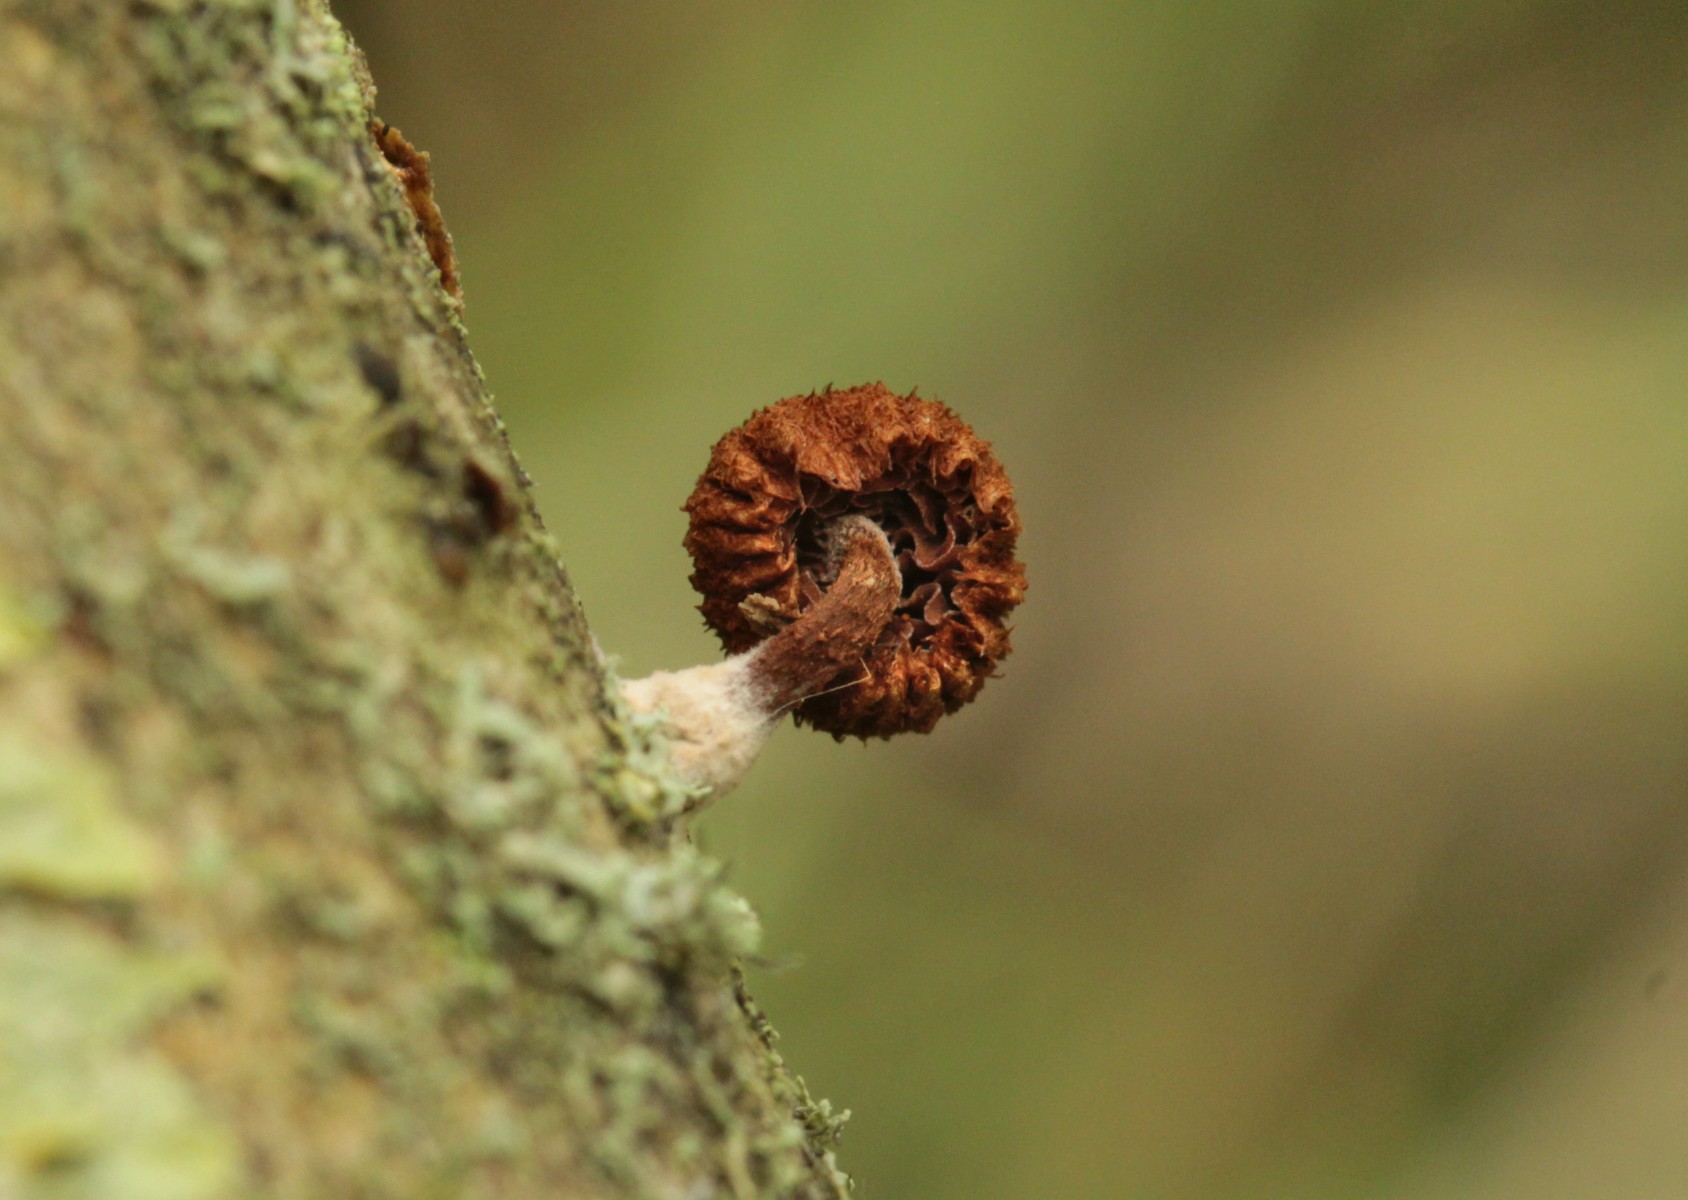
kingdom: Fungi
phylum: Basidiomycota
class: Agaricomycetes
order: Agaricales
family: Tubariaceae
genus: Phaeomarasmius
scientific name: Phaeomarasmius erinaceus
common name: spidsskælhat
